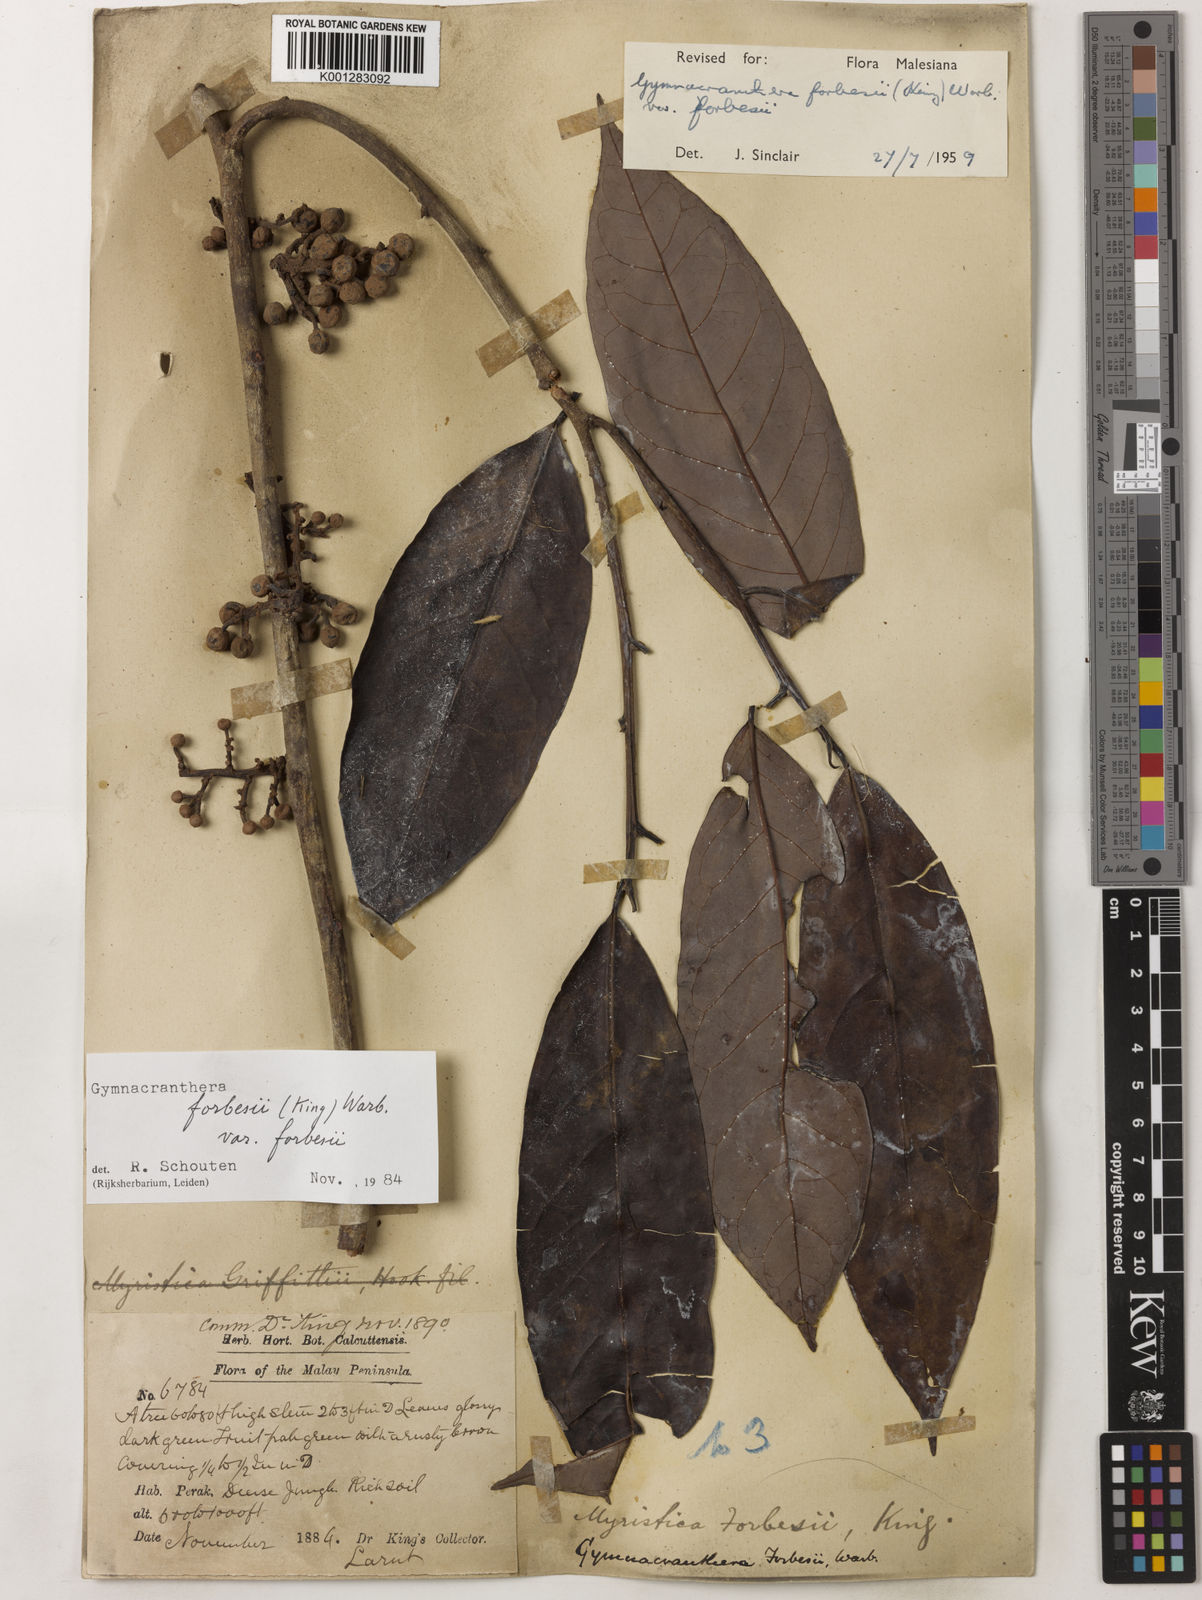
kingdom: Plantae
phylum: Tracheophyta
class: Magnoliopsida
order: Magnoliales
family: Myristicaceae
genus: Gymnacranthera
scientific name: Gymnacranthera forbesii
